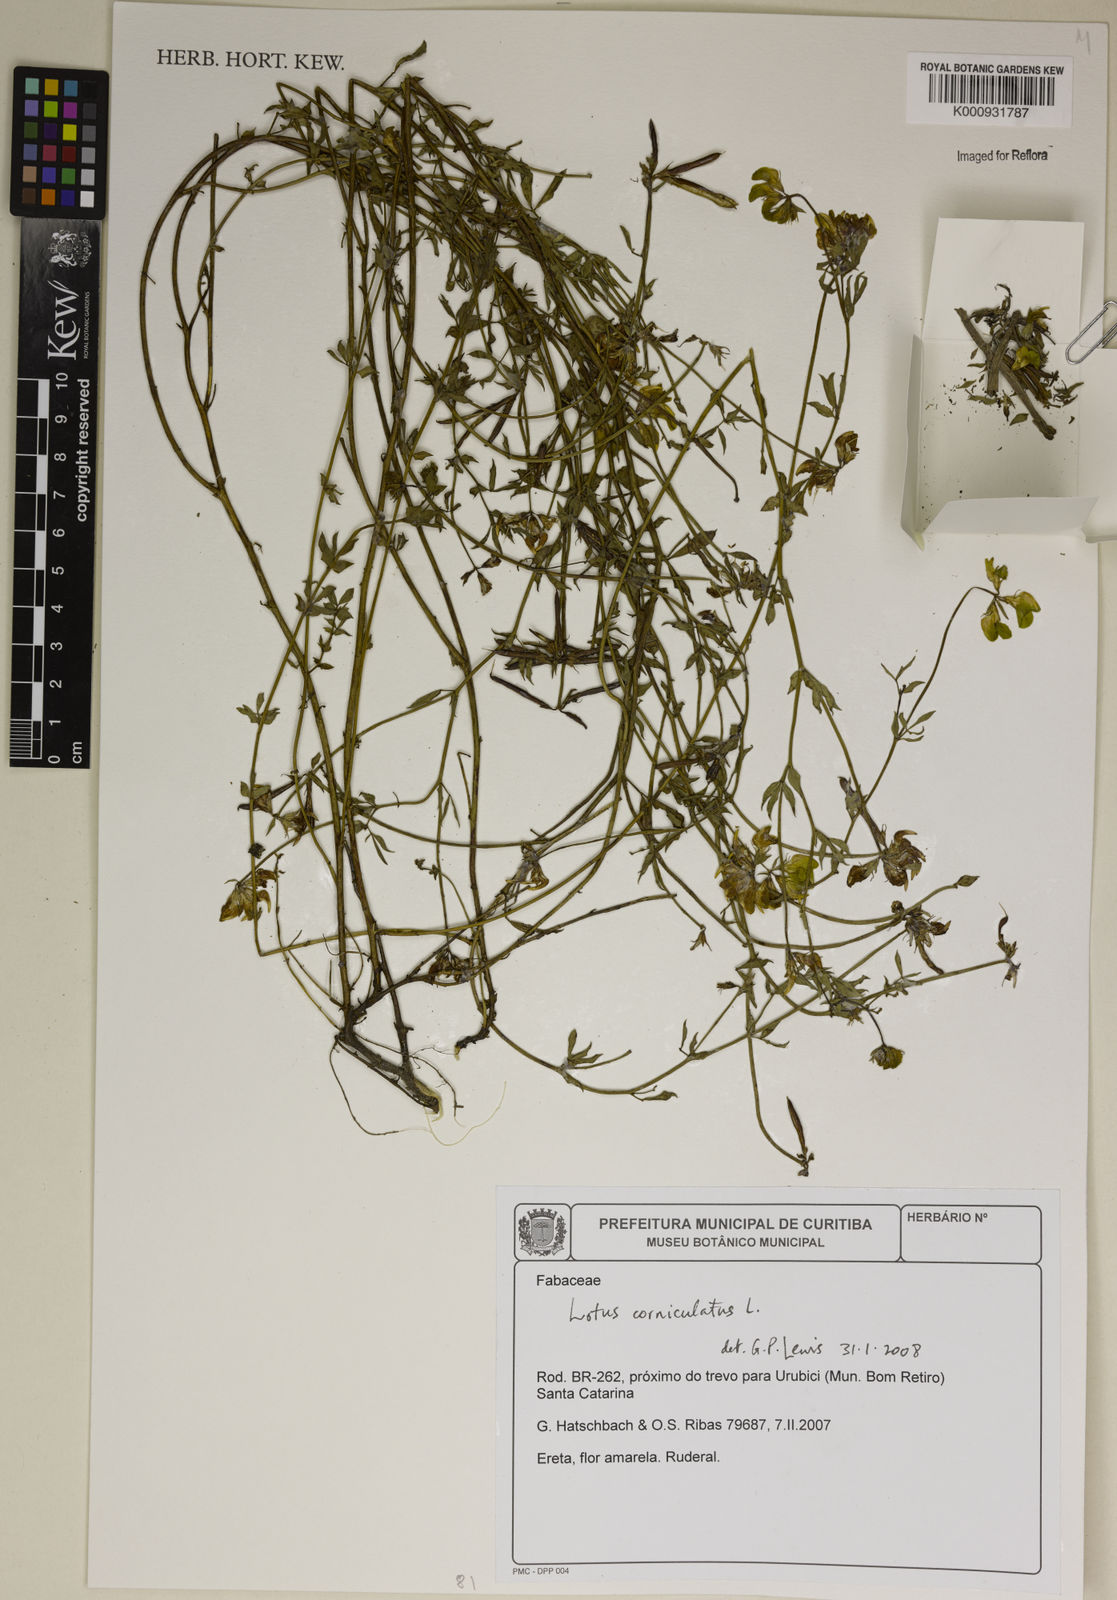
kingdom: Plantae
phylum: Tracheophyta
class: Magnoliopsida
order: Fabales
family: Fabaceae
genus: Lotus
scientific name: Lotus
